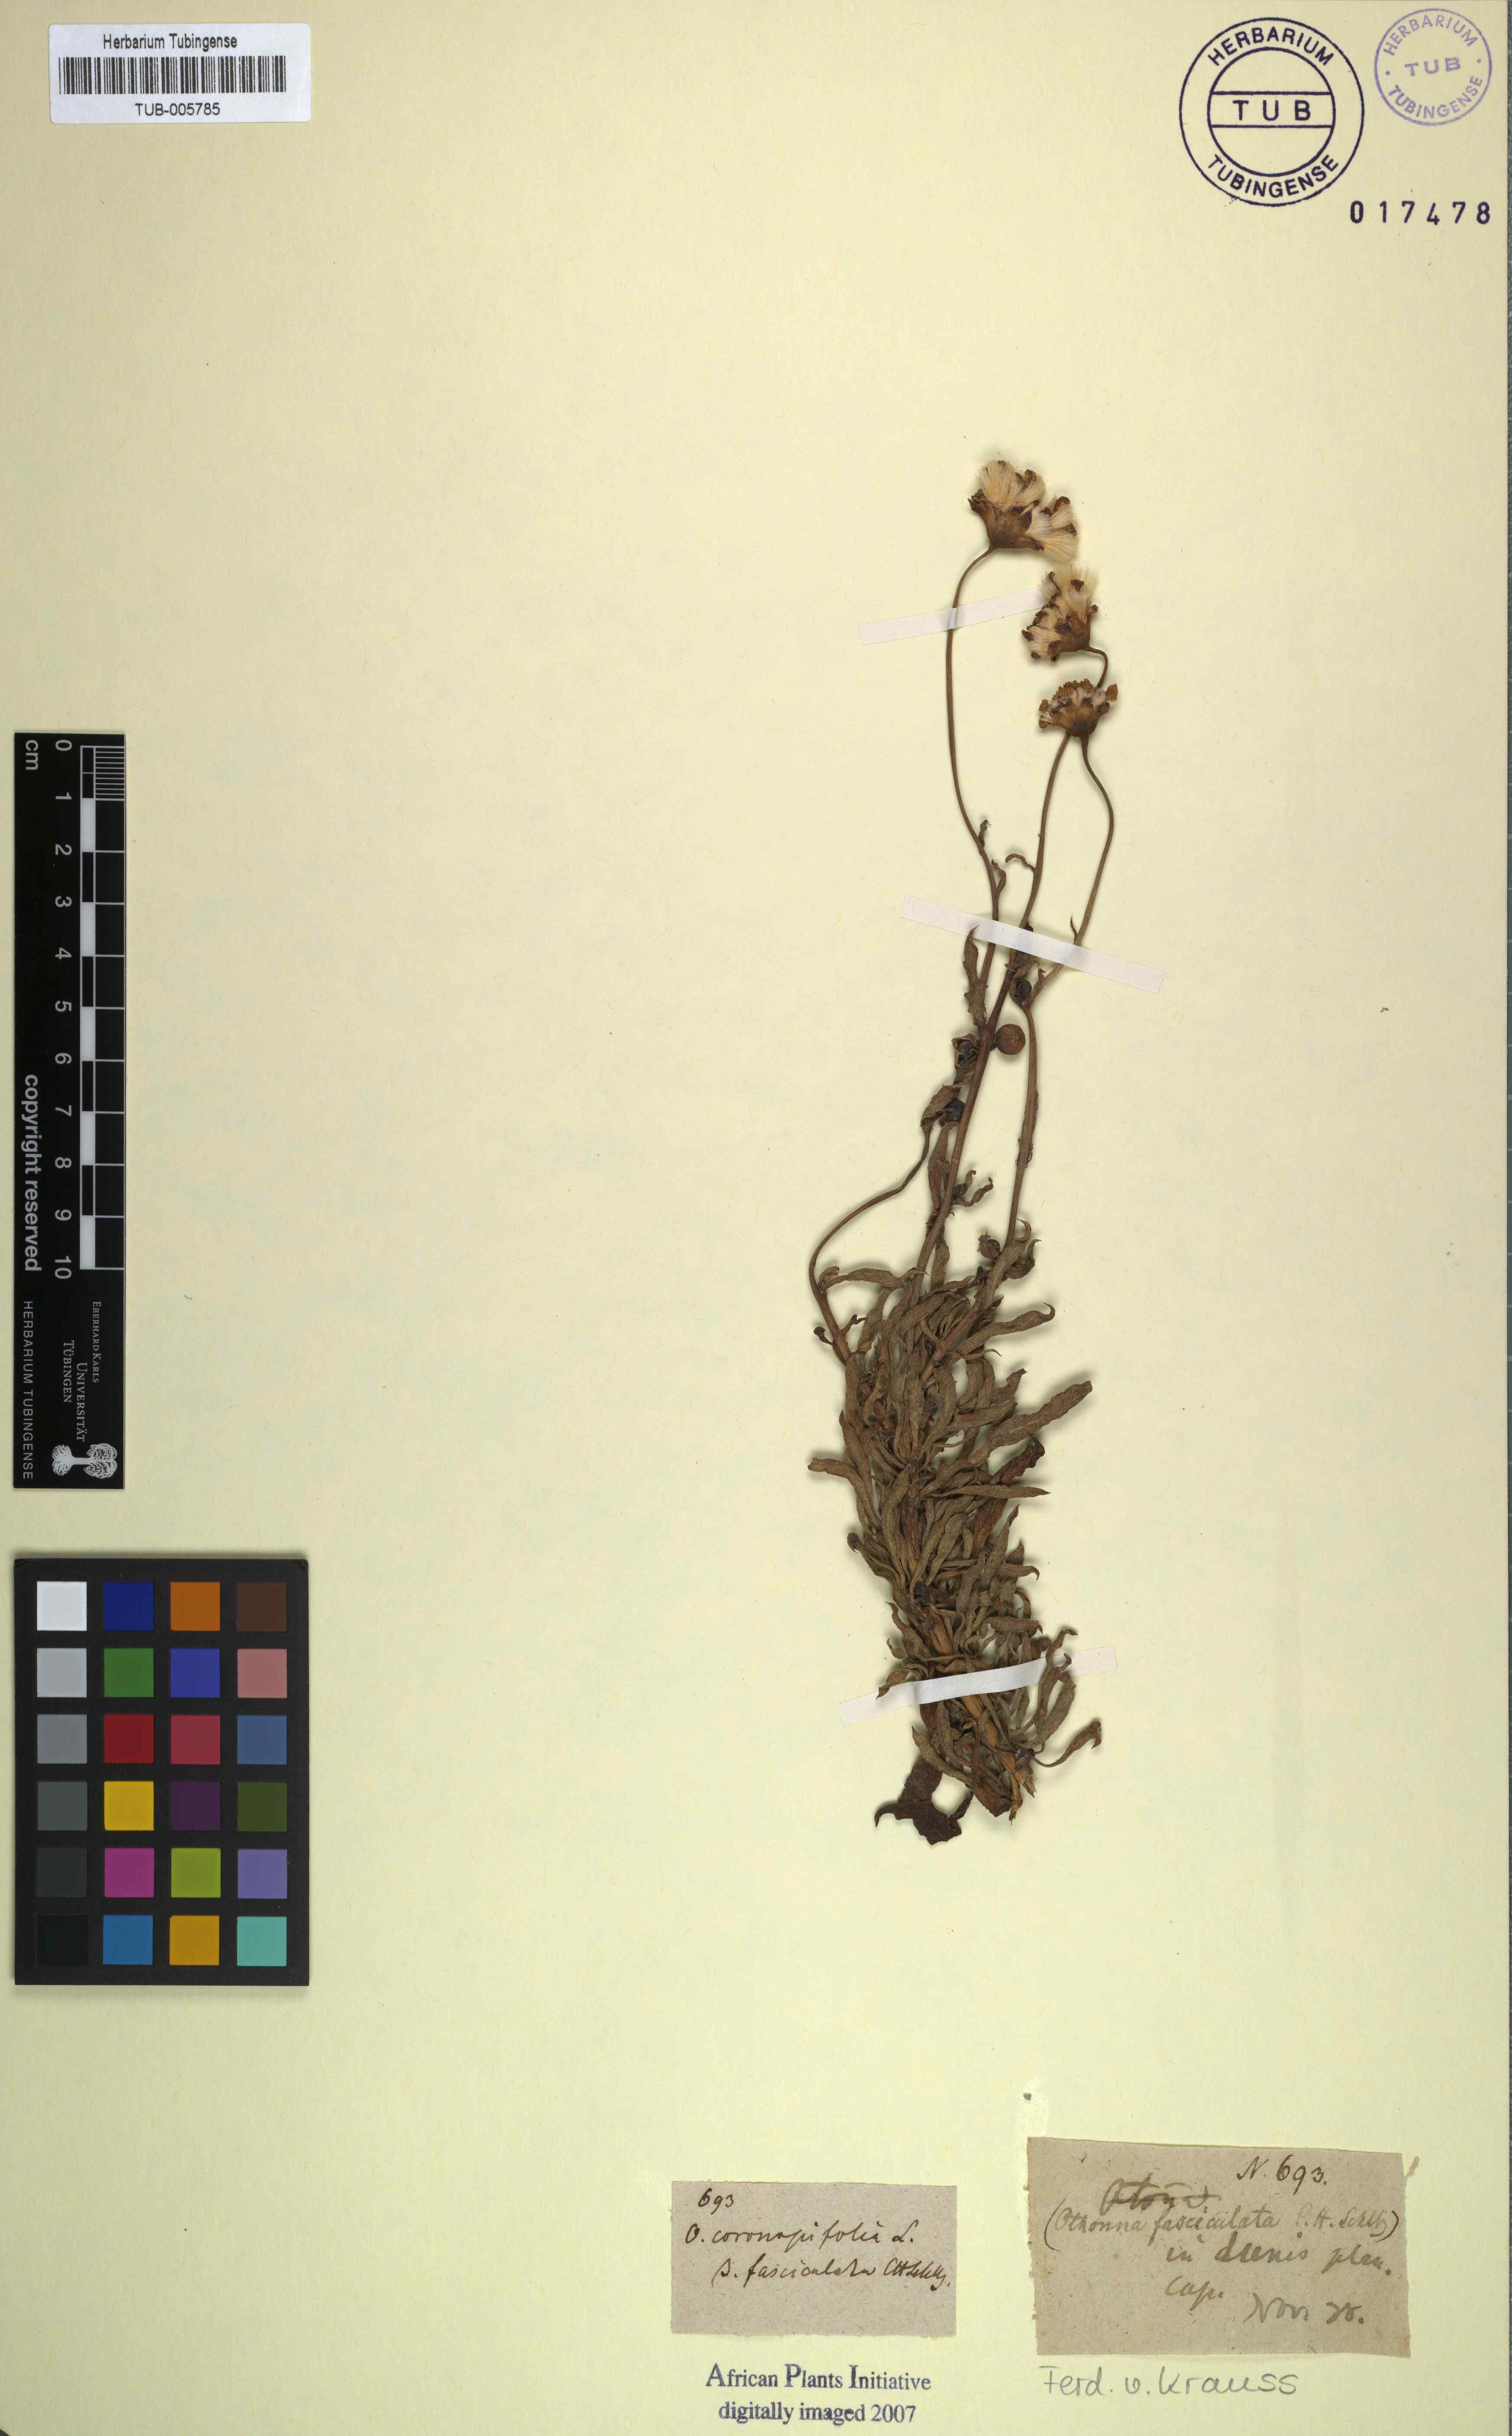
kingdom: Plantae
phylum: Tracheophyta
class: Magnoliopsida
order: Asterales
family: Asteraceae
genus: Othonna
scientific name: Othonna coronopifolia
